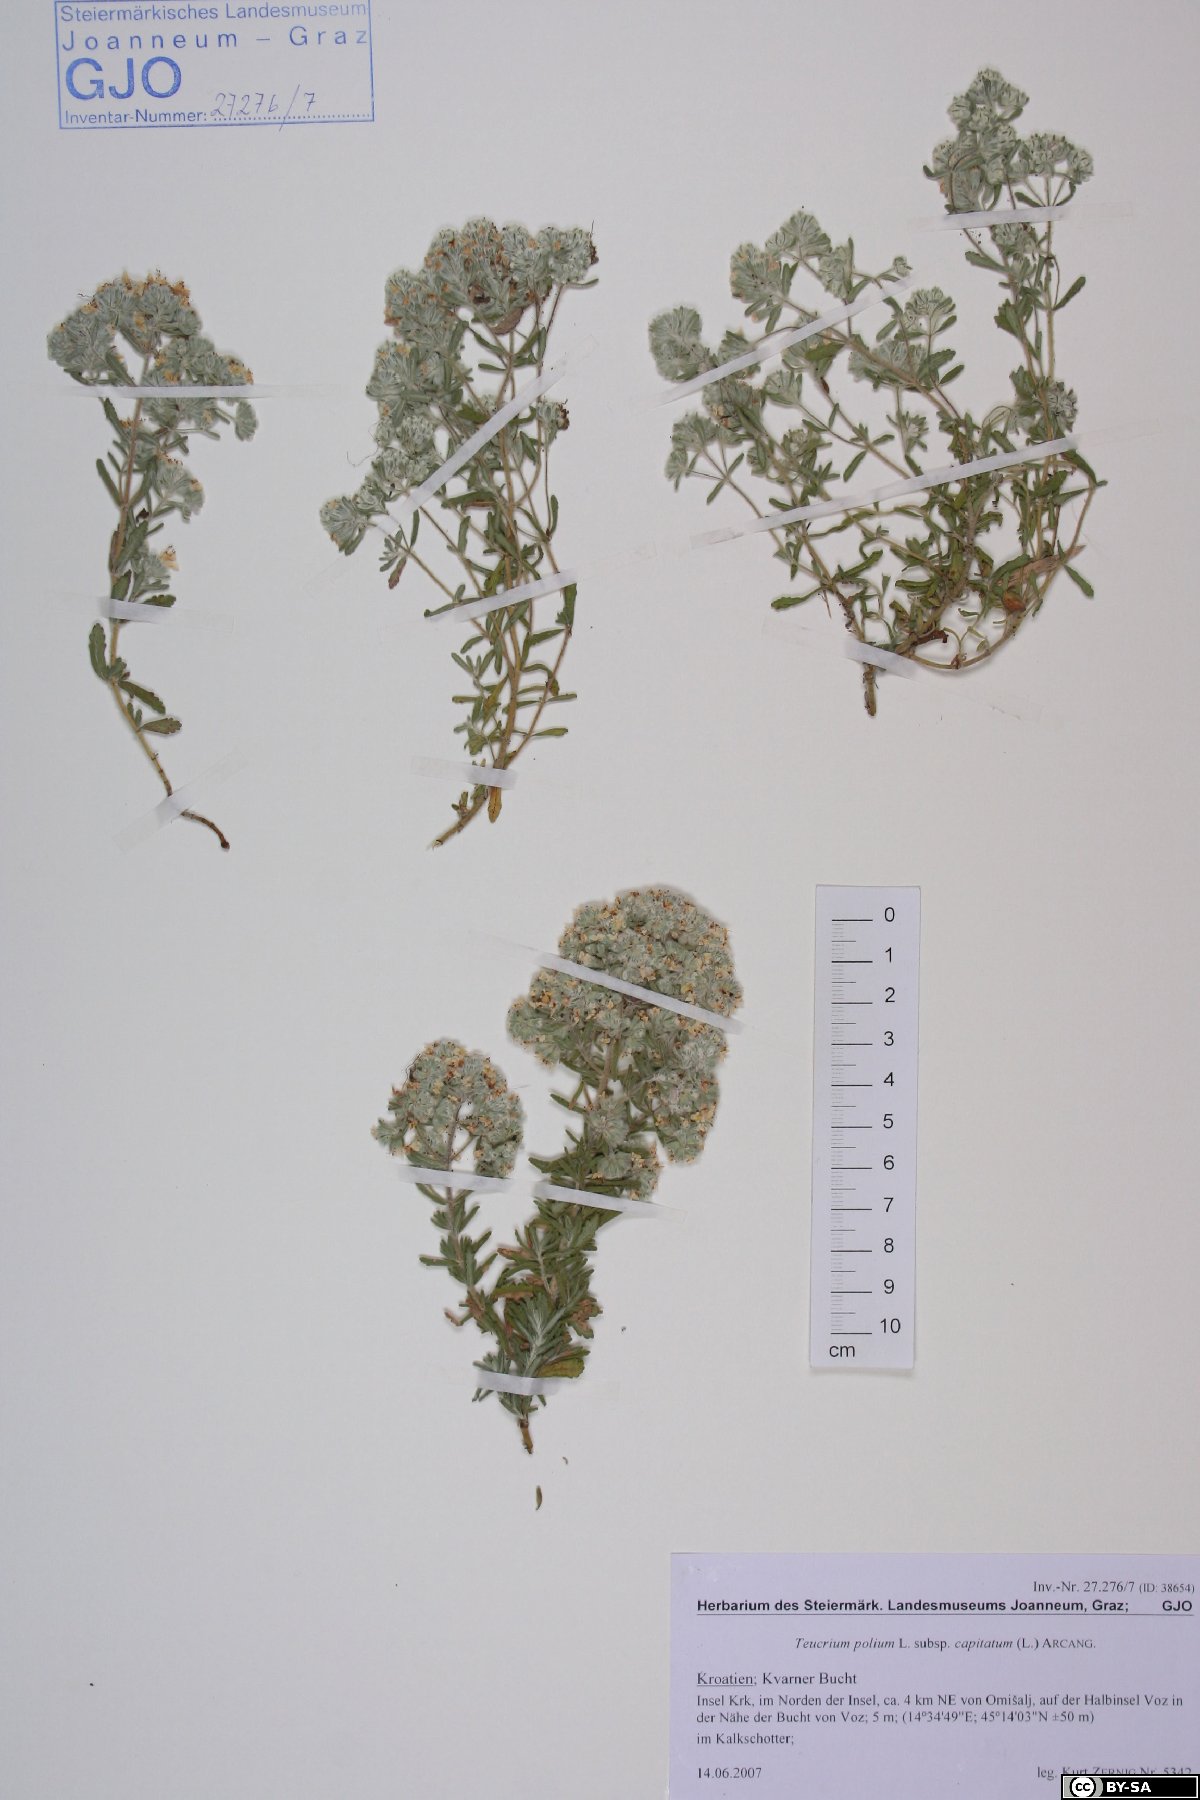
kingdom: Plantae
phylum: Tracheophyta
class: Magnoliopsida
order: Lamiales
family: Lamiaceae
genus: Teucrium
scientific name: Teucrium capitatum
